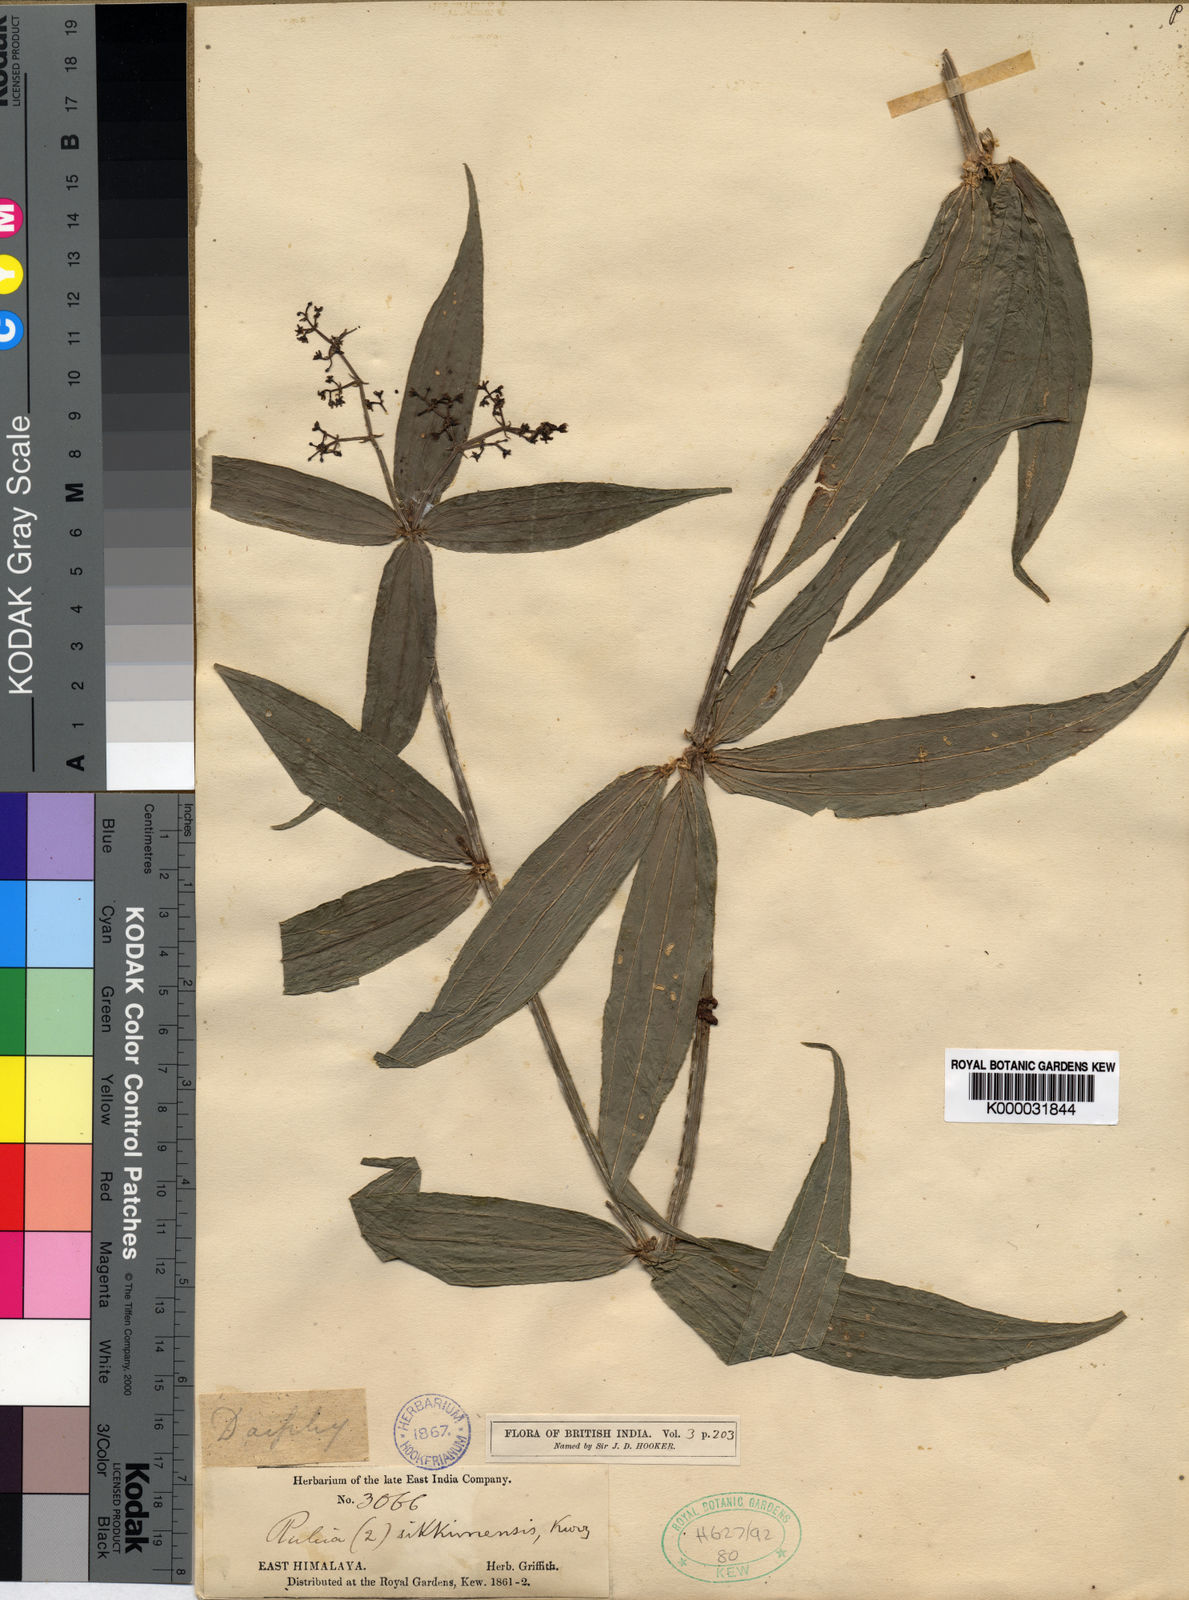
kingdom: Plantae
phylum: Tracheophyta
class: Magnoliopsida
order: Gentianales
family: Rubiaceae
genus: Rubia
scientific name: Rubia sikkimensis
